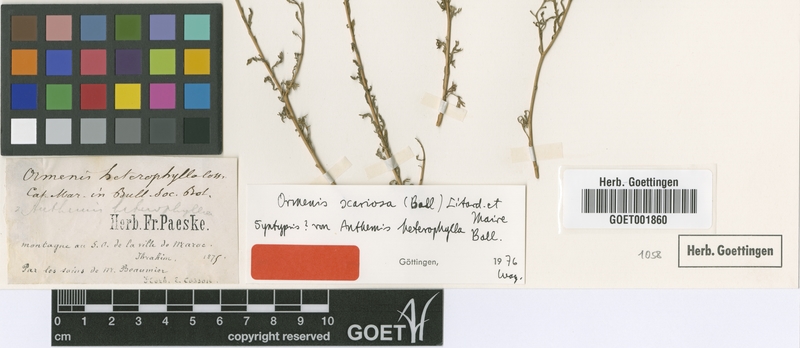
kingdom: Plantae
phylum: Tracheophyta
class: Magnoliopsida
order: Asterales
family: Asteraceae
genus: Cladanthus
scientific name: Cladanthus scariosus
